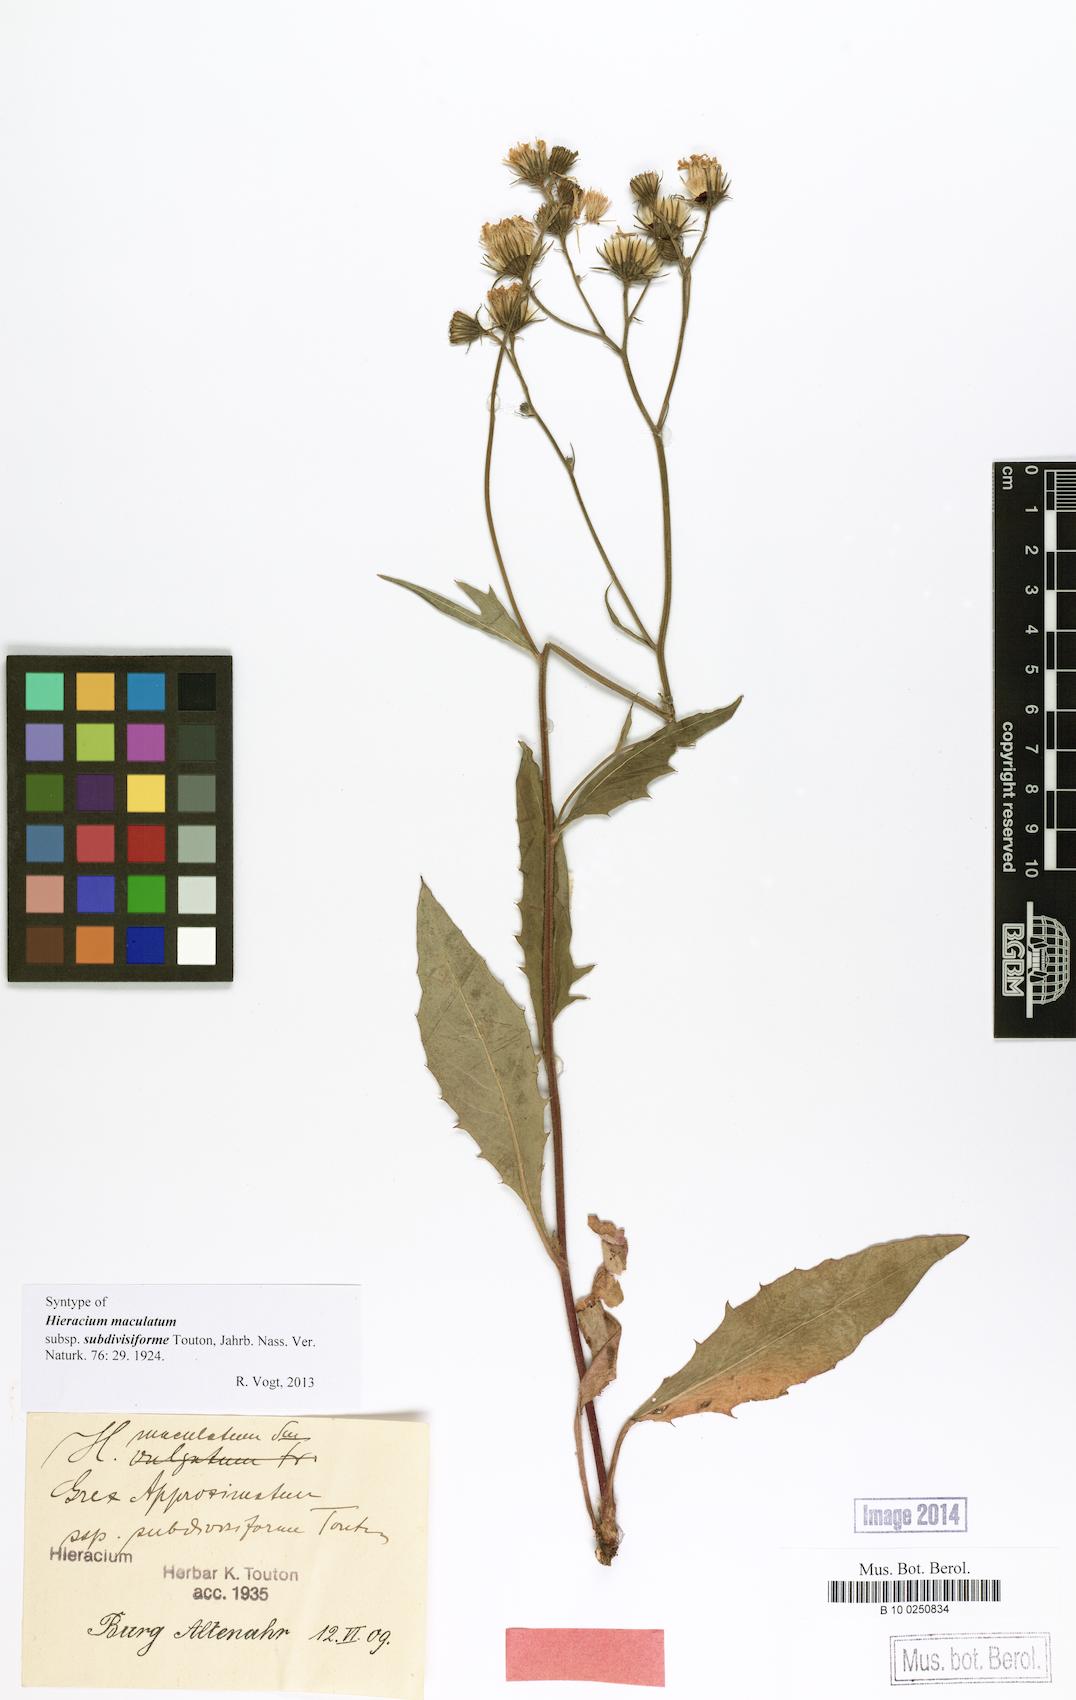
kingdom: Plantae
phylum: Tracheophyta
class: Magnoliopsida
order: Asterales
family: Asteraceae
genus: Hieracium
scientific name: Hieracium maculatum
